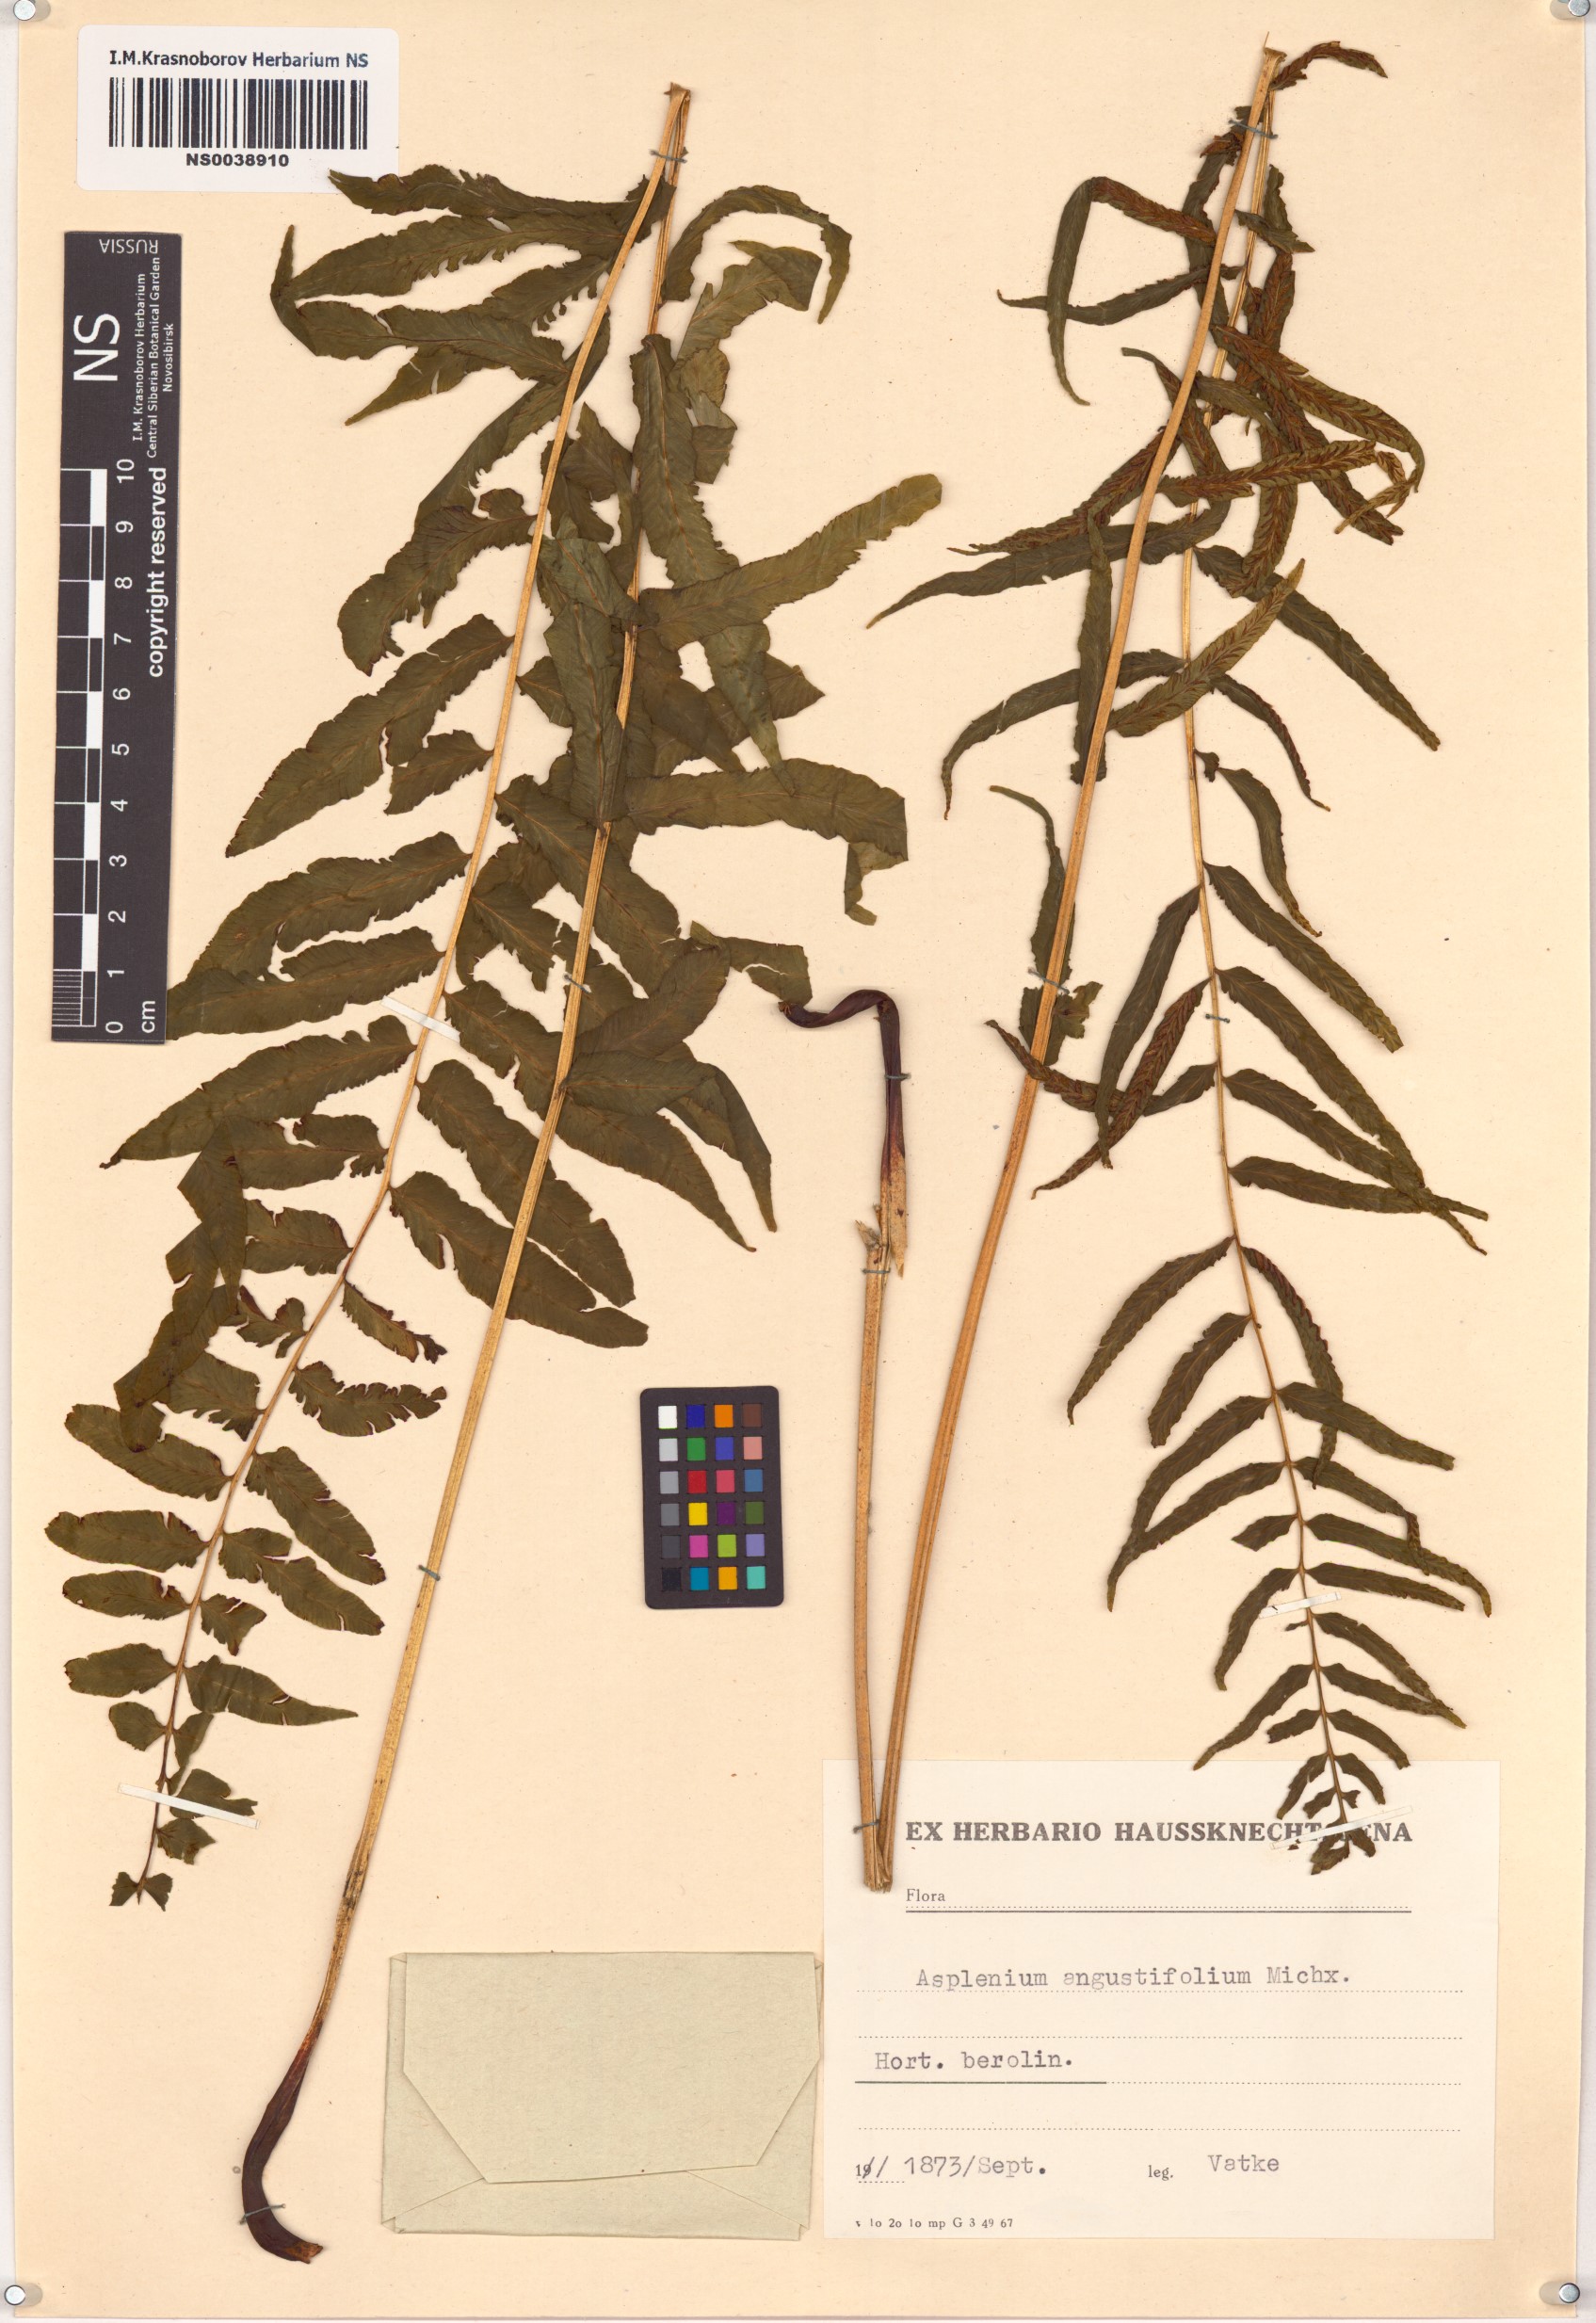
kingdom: Plantae
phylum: Tracheophyta
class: Polypodiopsida
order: Polypodiales
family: Diplaziopsidaceae
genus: Homalosorus
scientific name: Homalosorus pycnocarpos
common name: Glade fern
